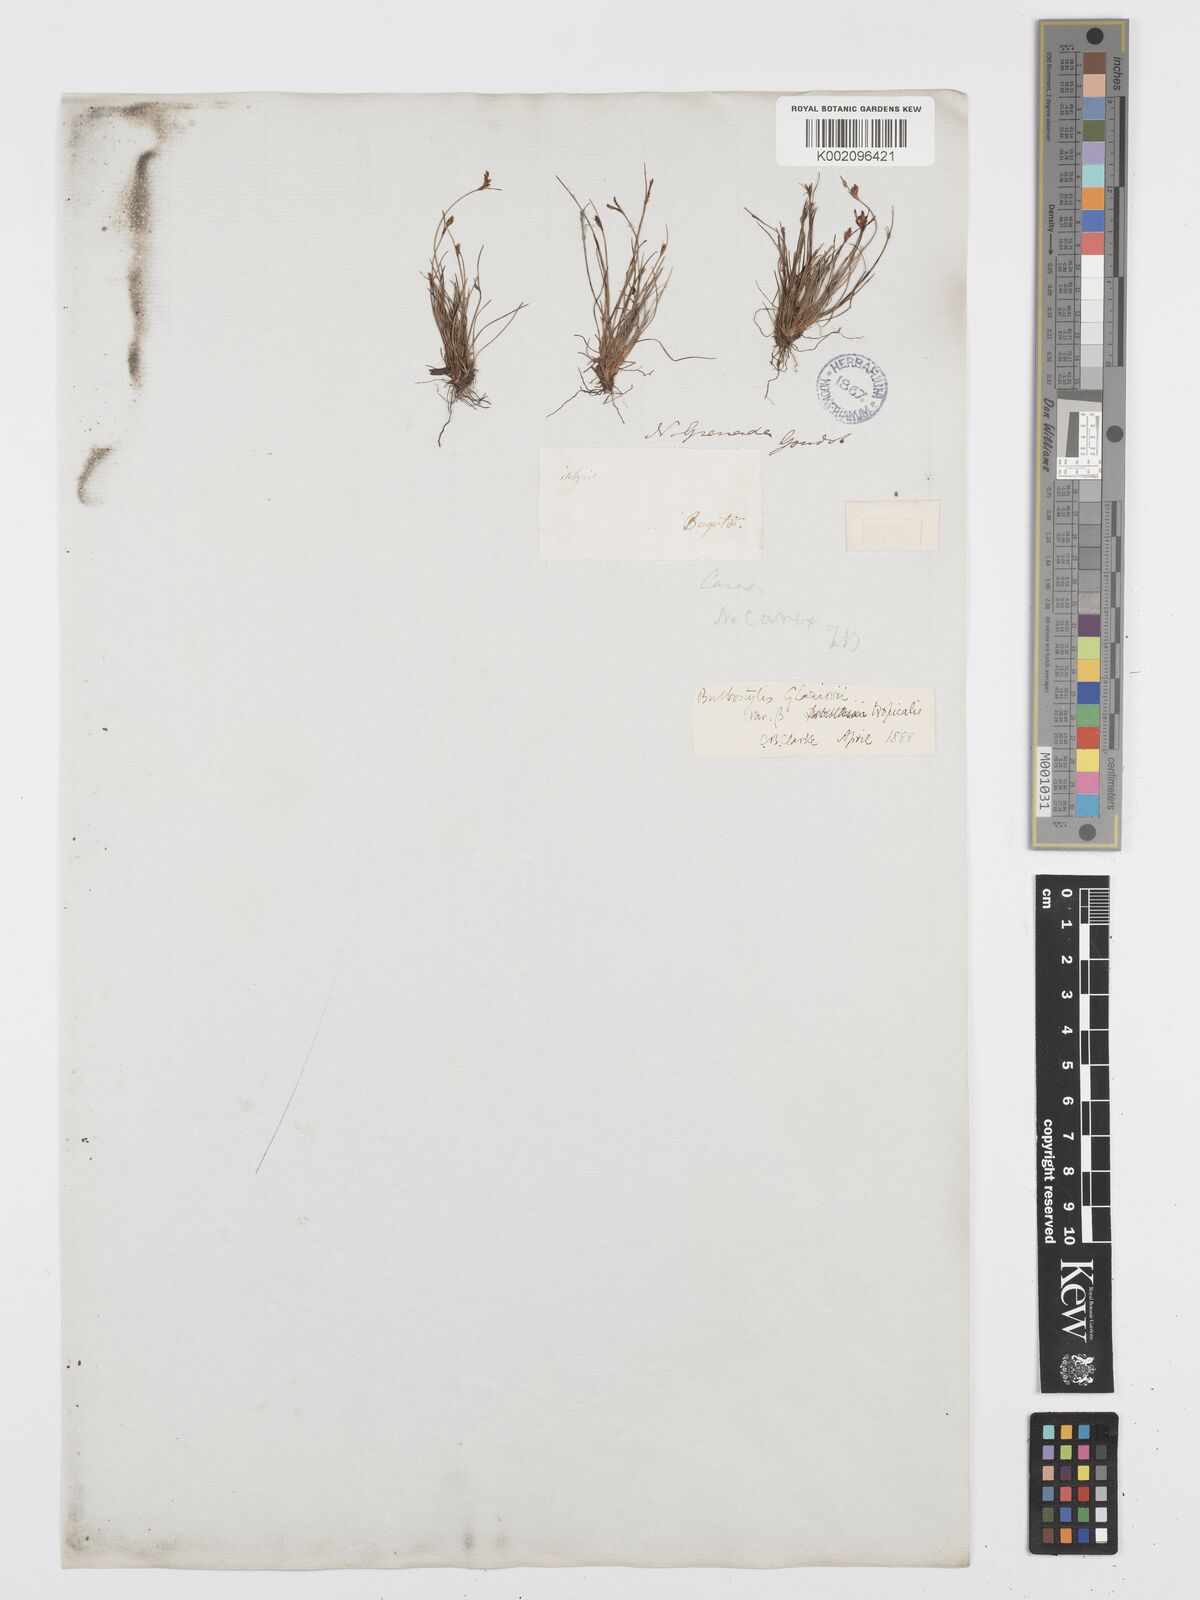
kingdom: Plantae
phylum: Tracheophyta
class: Liliopsida
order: Poales
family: Cyperaceae
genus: Bulbostylis
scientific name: Bulbostylis juncoides
